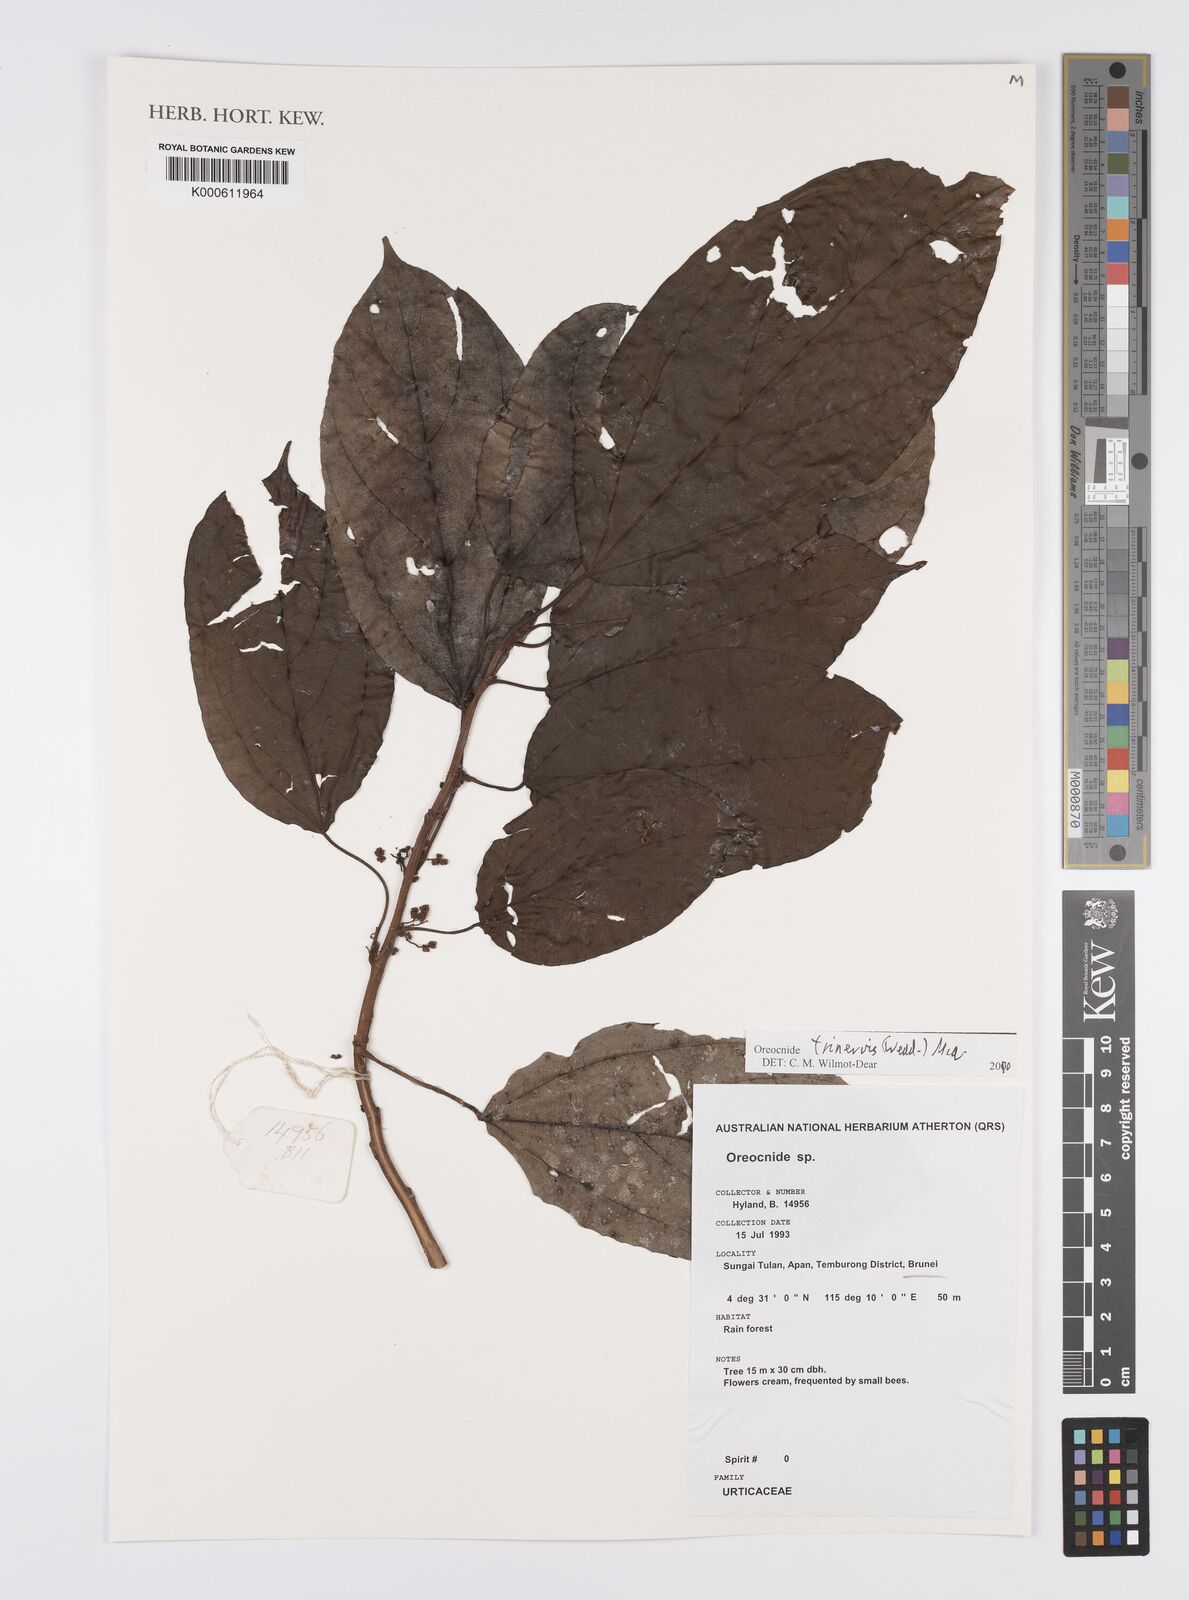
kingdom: Plantae
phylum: Tracheophyta
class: Magnoliopsida
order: Rosales
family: Urticaceae
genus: Oreocnide
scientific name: Oreocnide trinervis
